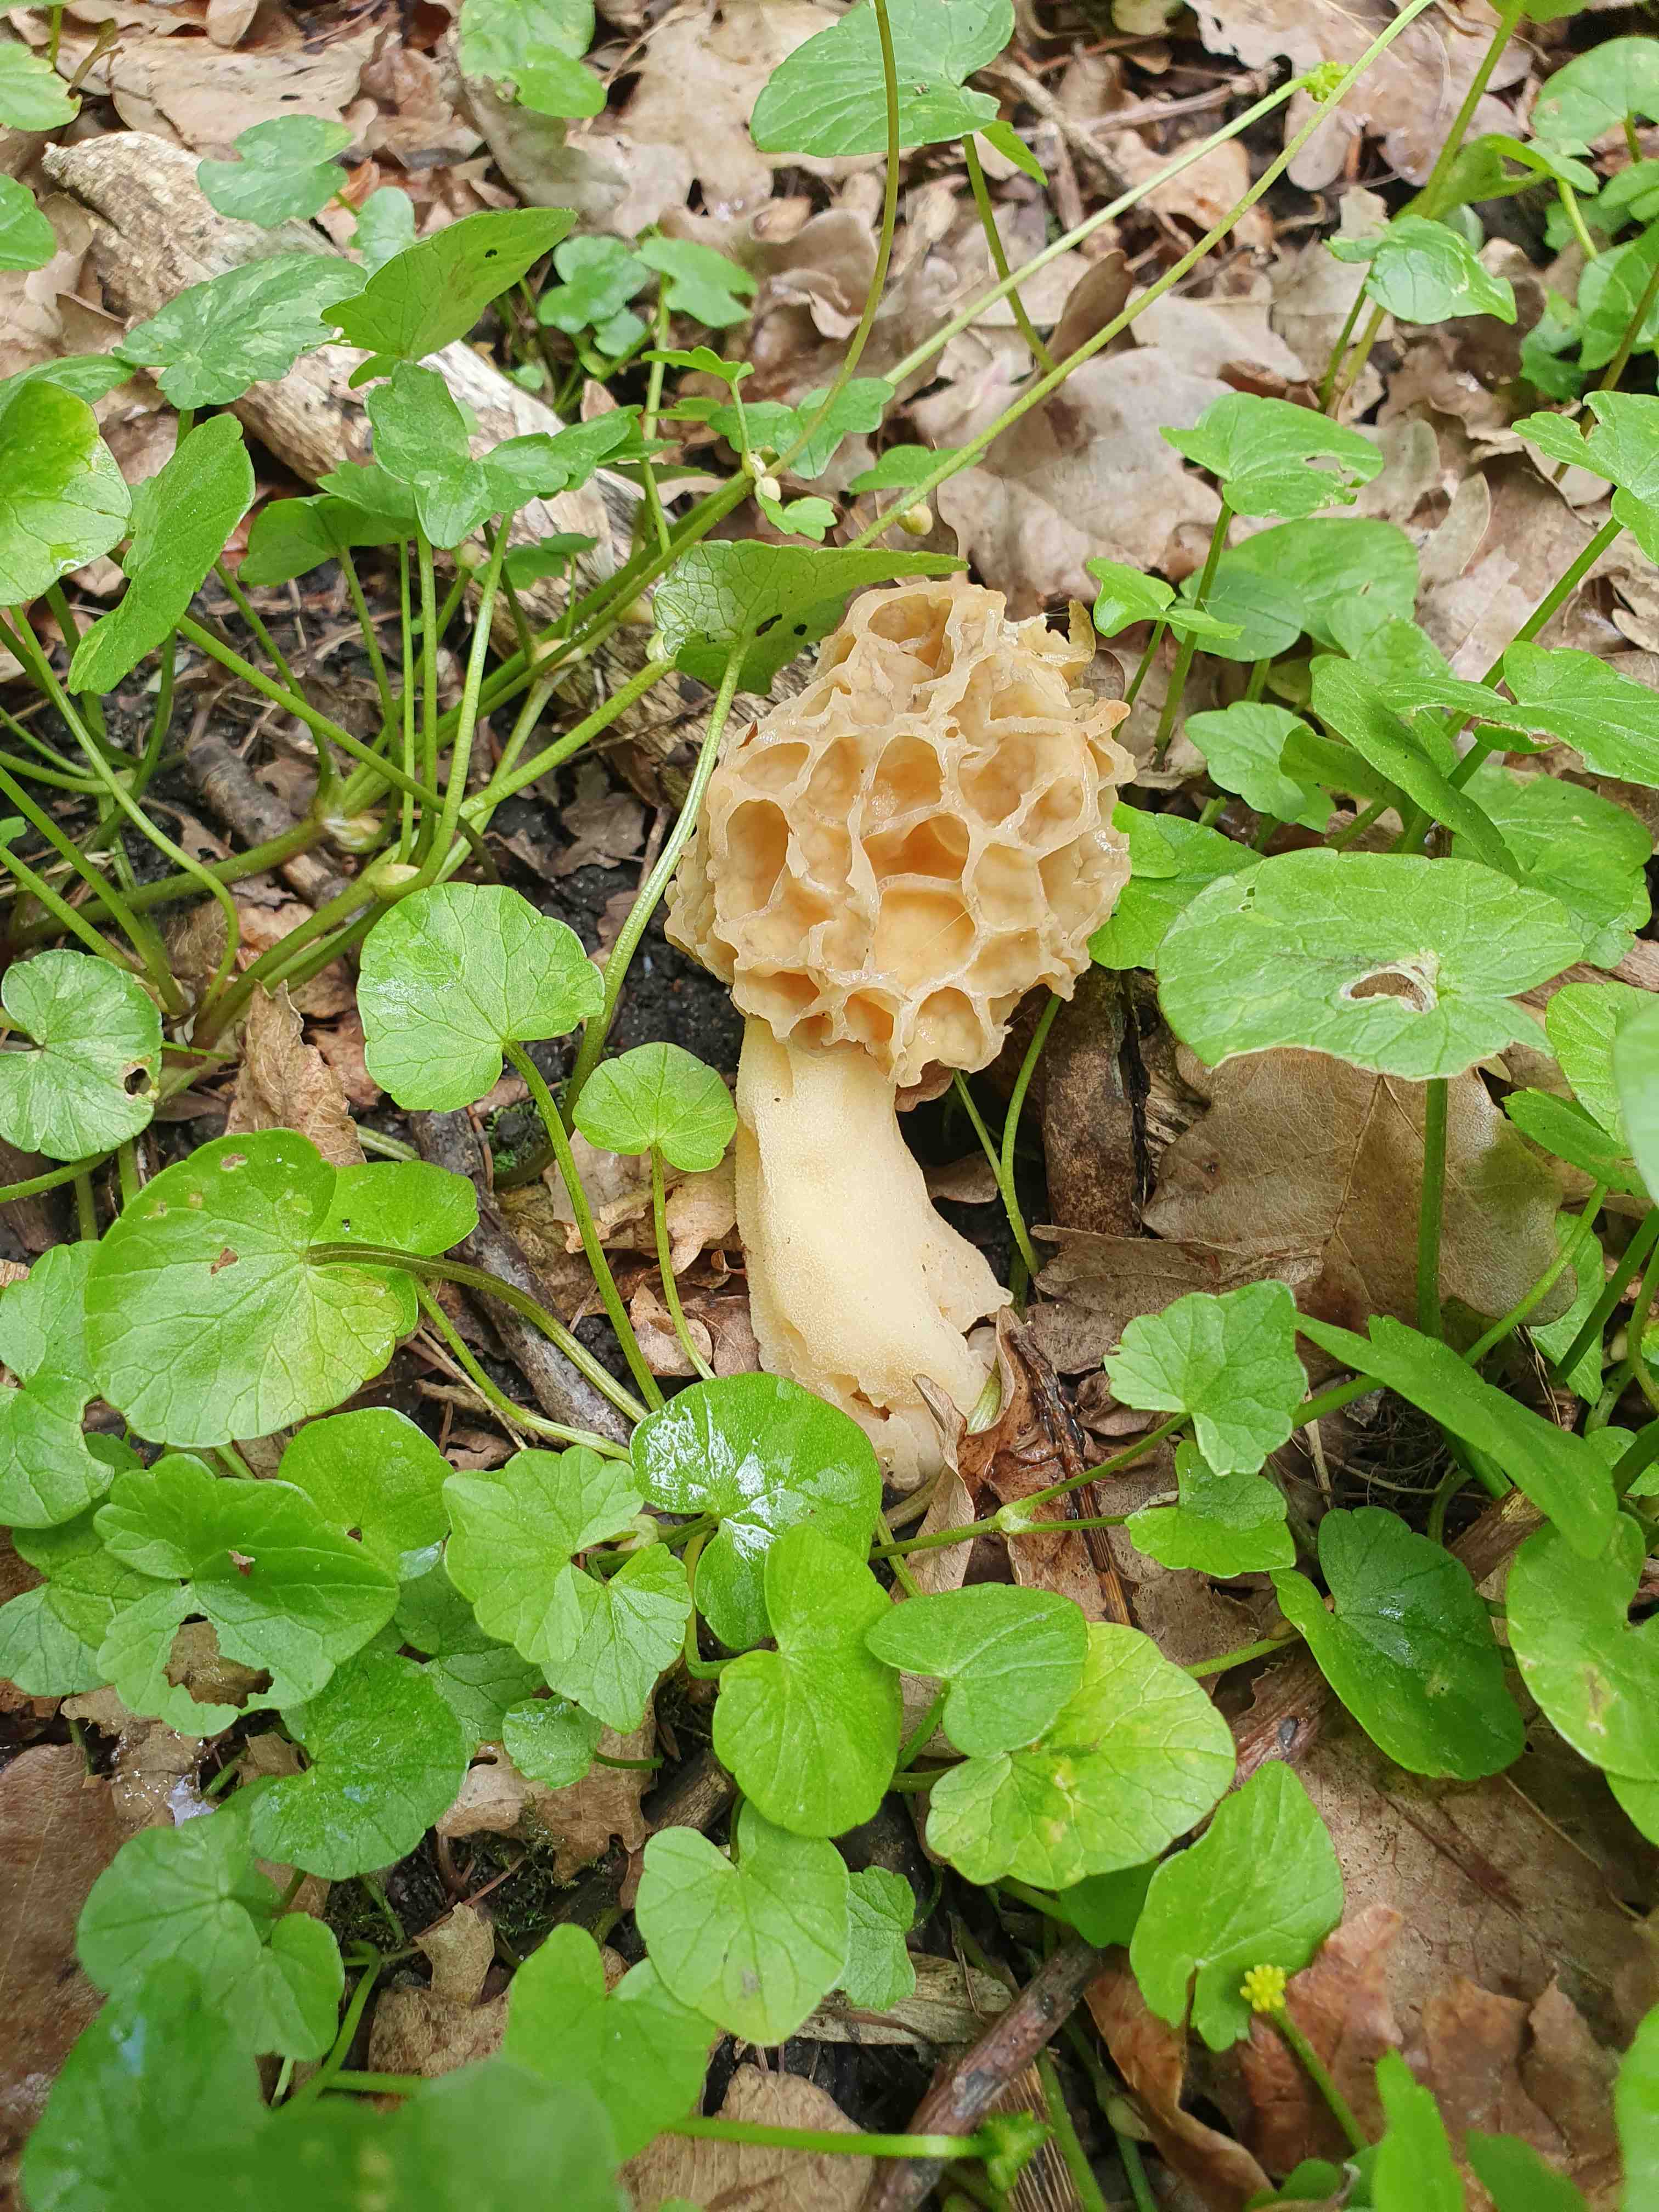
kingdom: Fungi
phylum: Ascomycota
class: Pezizomycetes
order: Pezizales
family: Morchellaceae
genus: Morchella
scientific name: Morchella esculenta
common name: spiselig morkel
